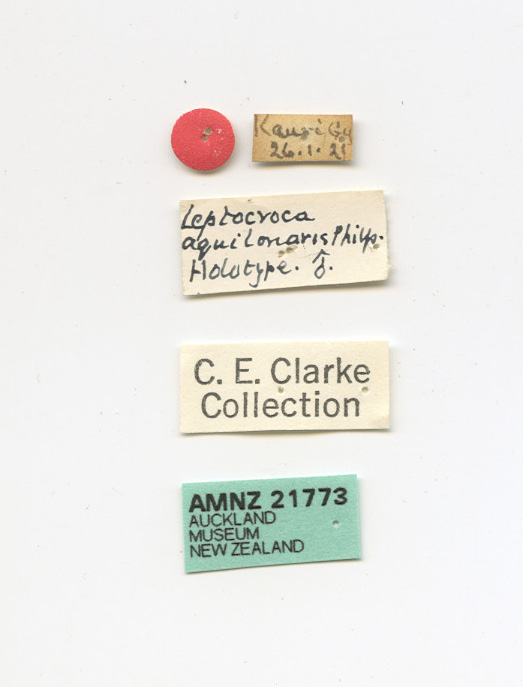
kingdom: Animalia
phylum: Arthropoda
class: Insecta
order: Lepidoptera
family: Oecophoridae
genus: Leptocroca
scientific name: Leptocroca aquilonaris
